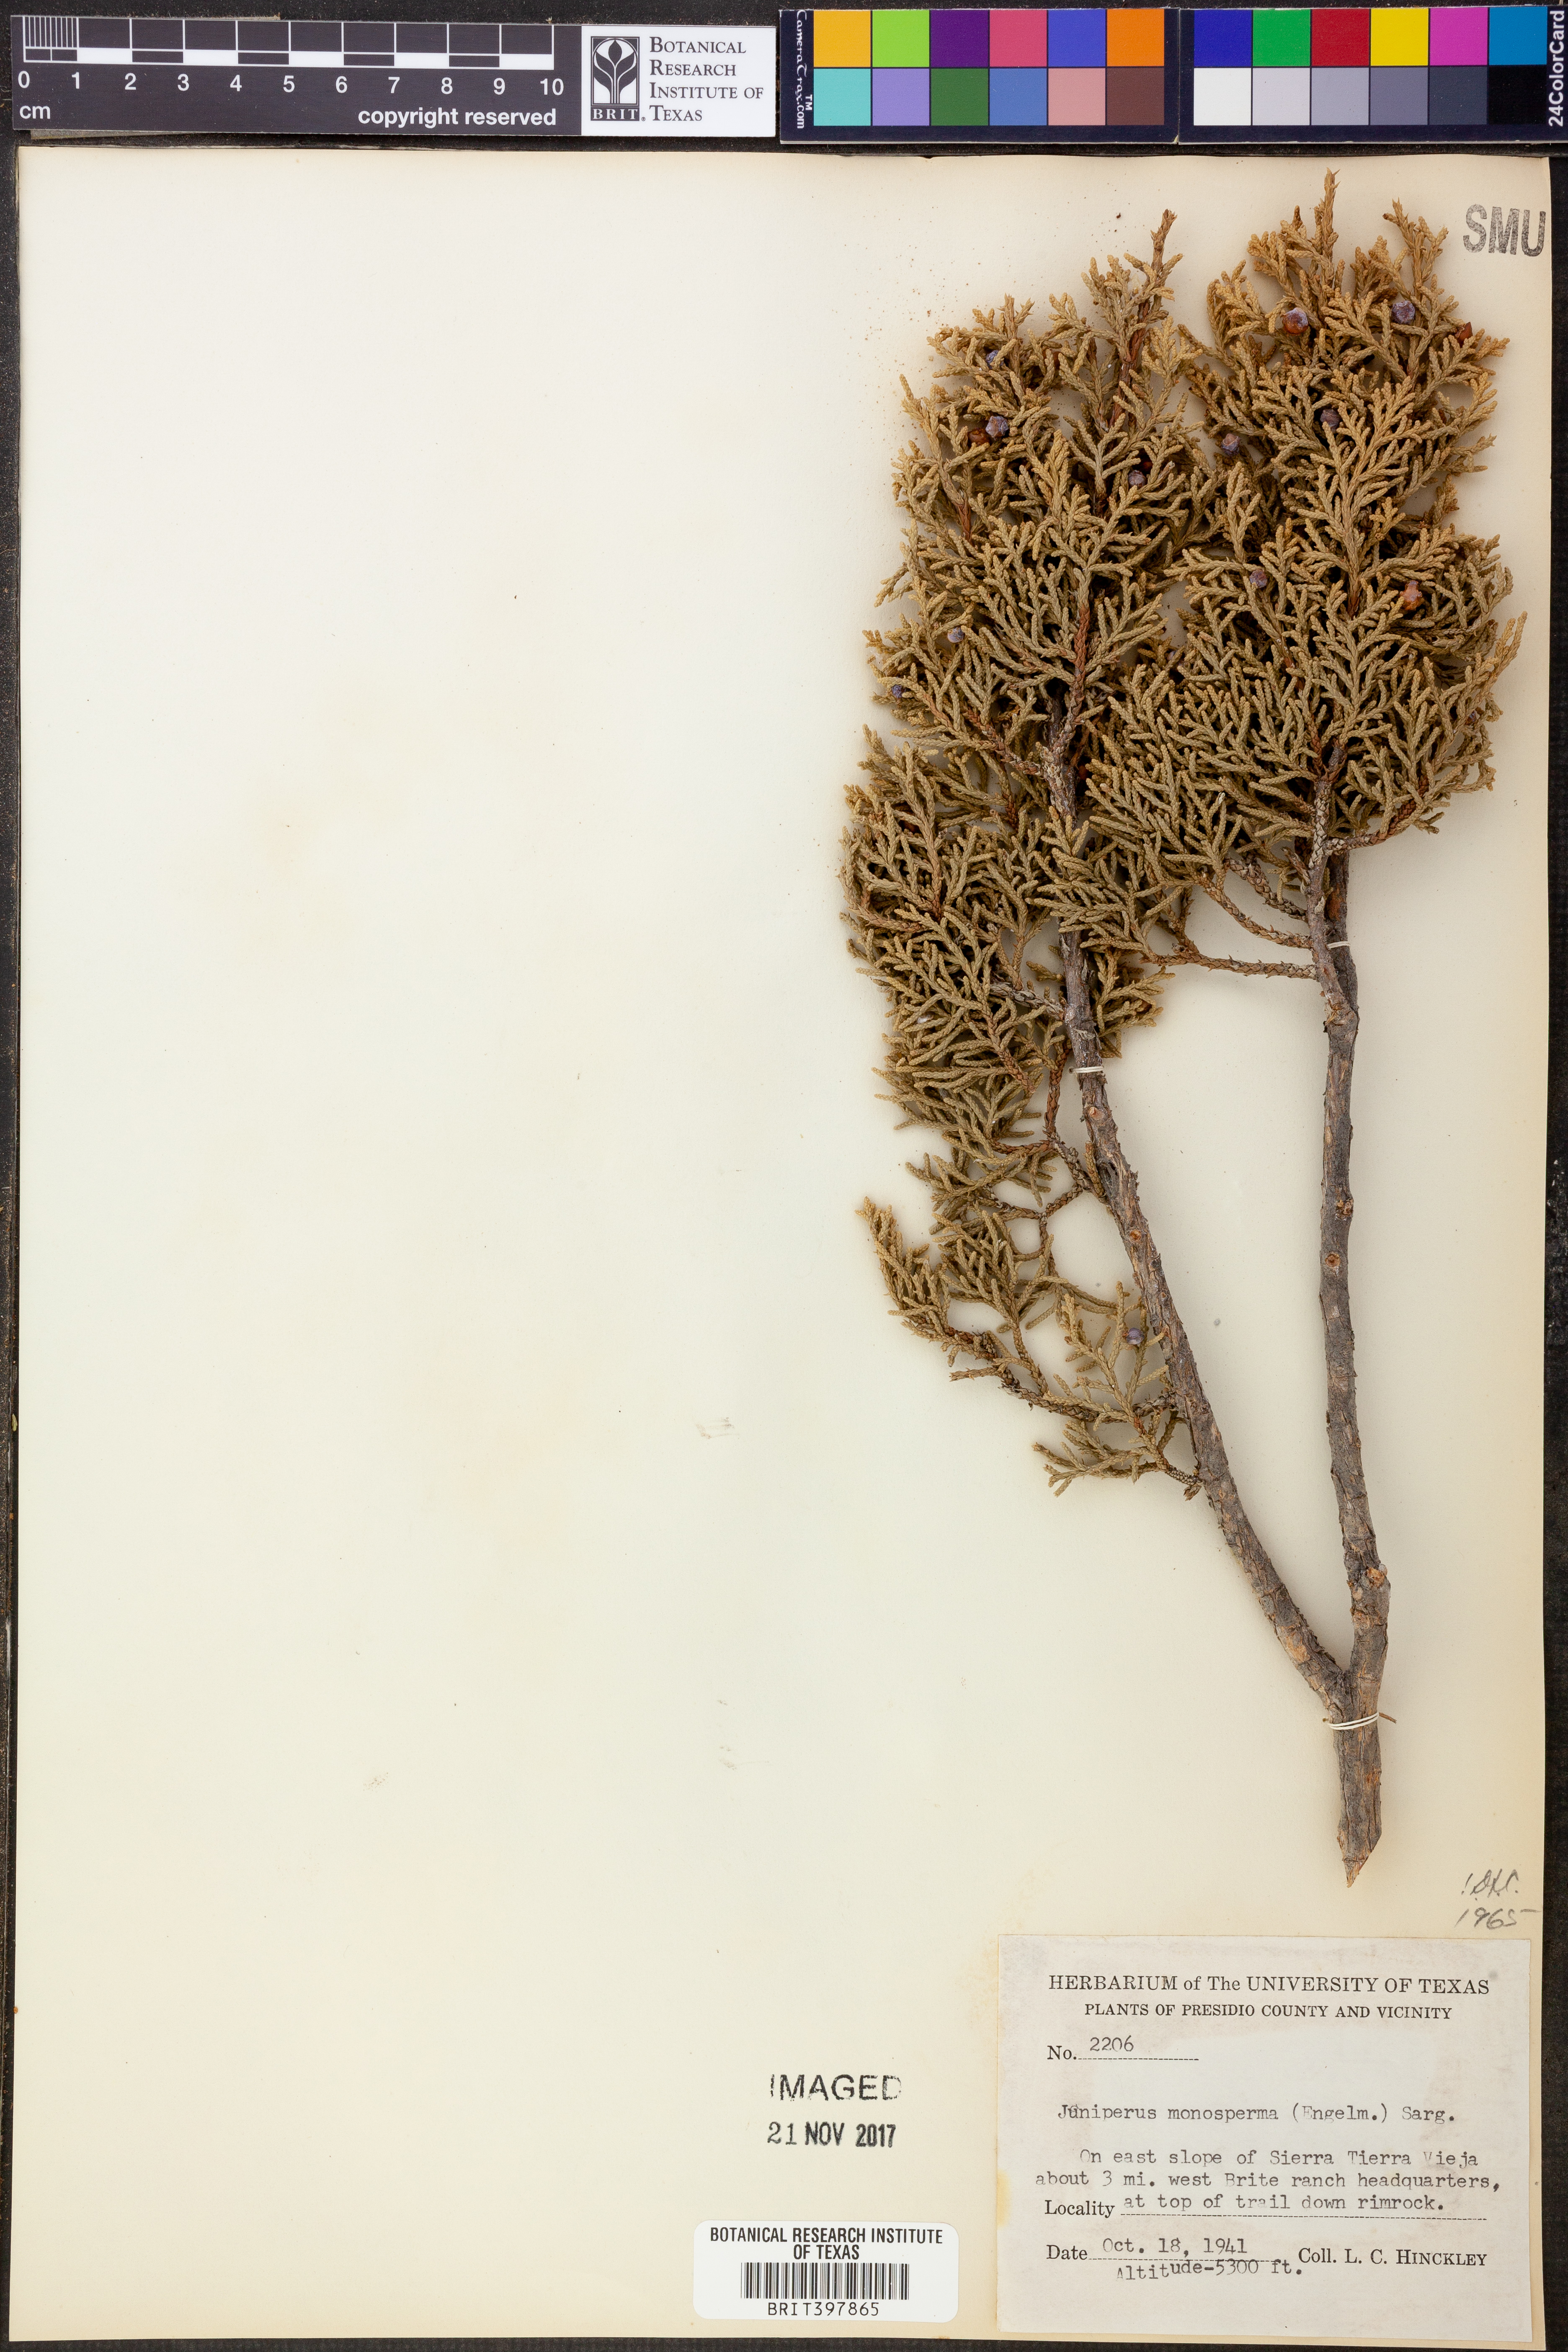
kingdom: Plantae
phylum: Tracheophyta
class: Pinopsida
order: Pinales
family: Cupressaceae
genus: Juniperus
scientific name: Juniperus monosperma
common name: One-seed juniper
